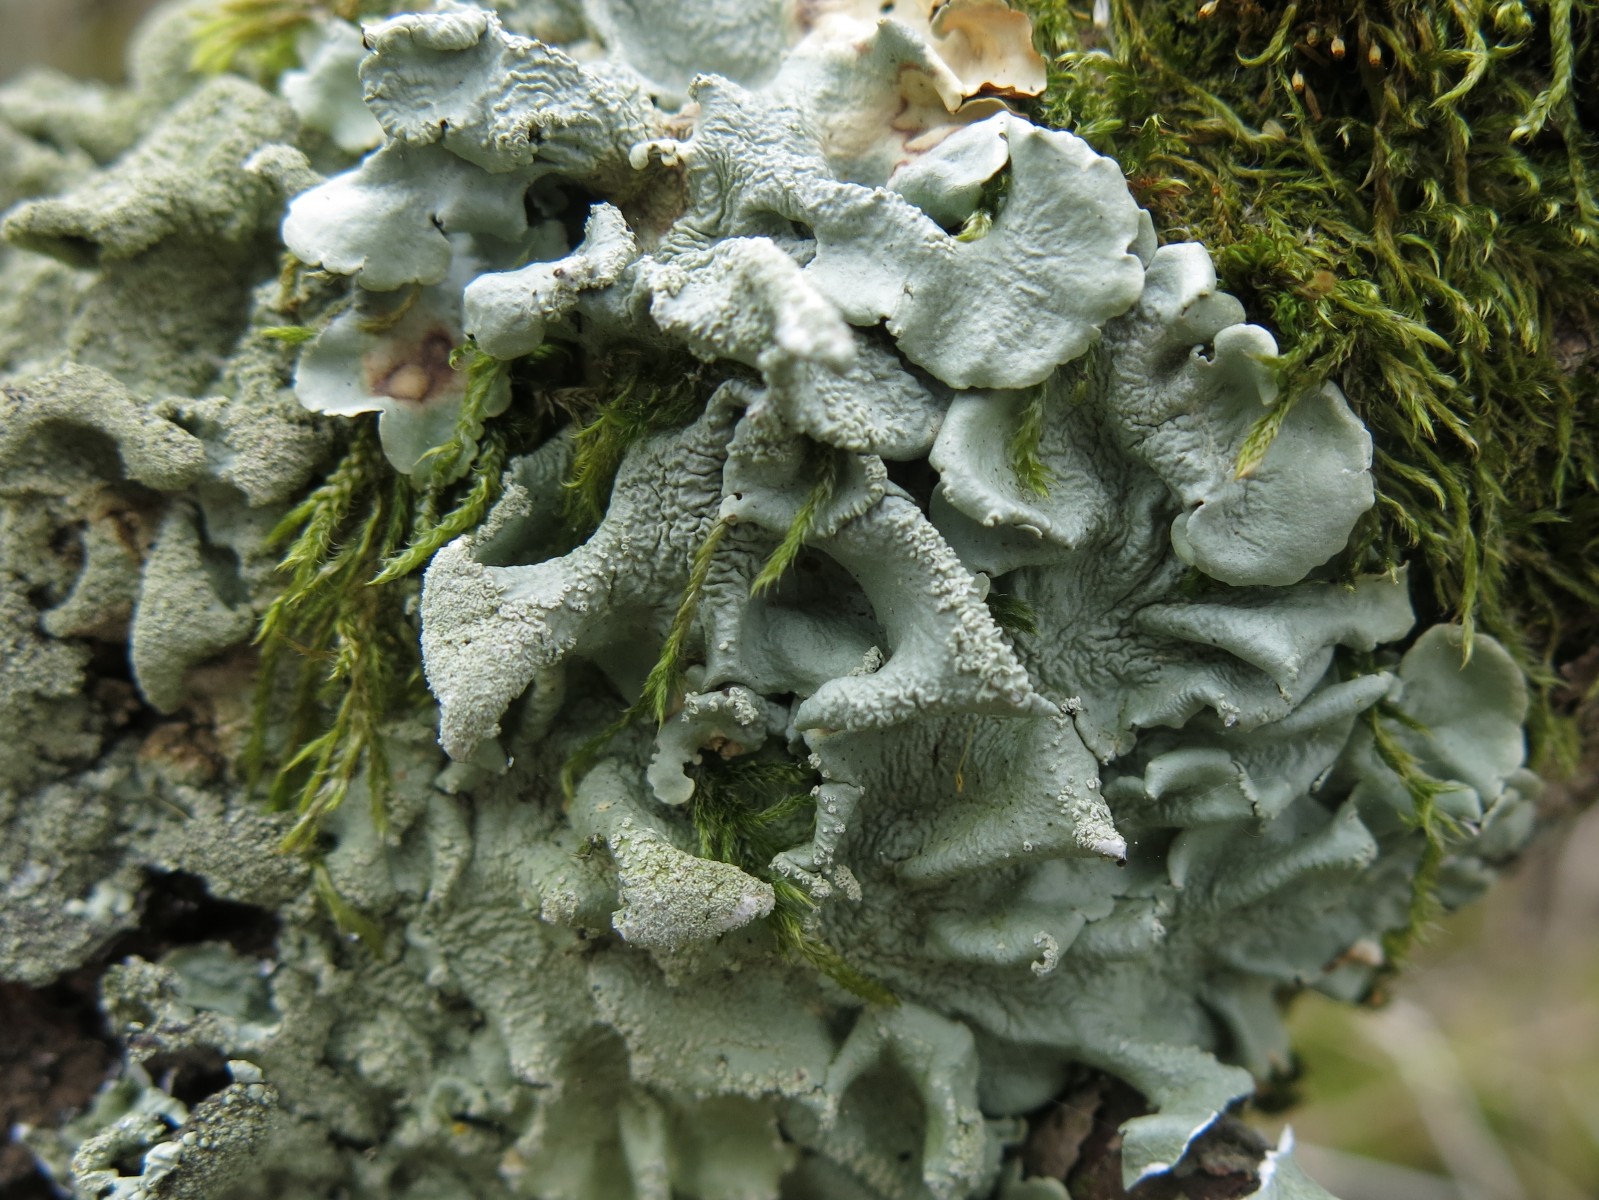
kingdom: Fungi
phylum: Ascomycota
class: Lecanoromycetes
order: Lecanorales
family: Parmeliaceae
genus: Flavoparmelia
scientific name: Flavoparmelia caperata
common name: gulgrøn skållav
